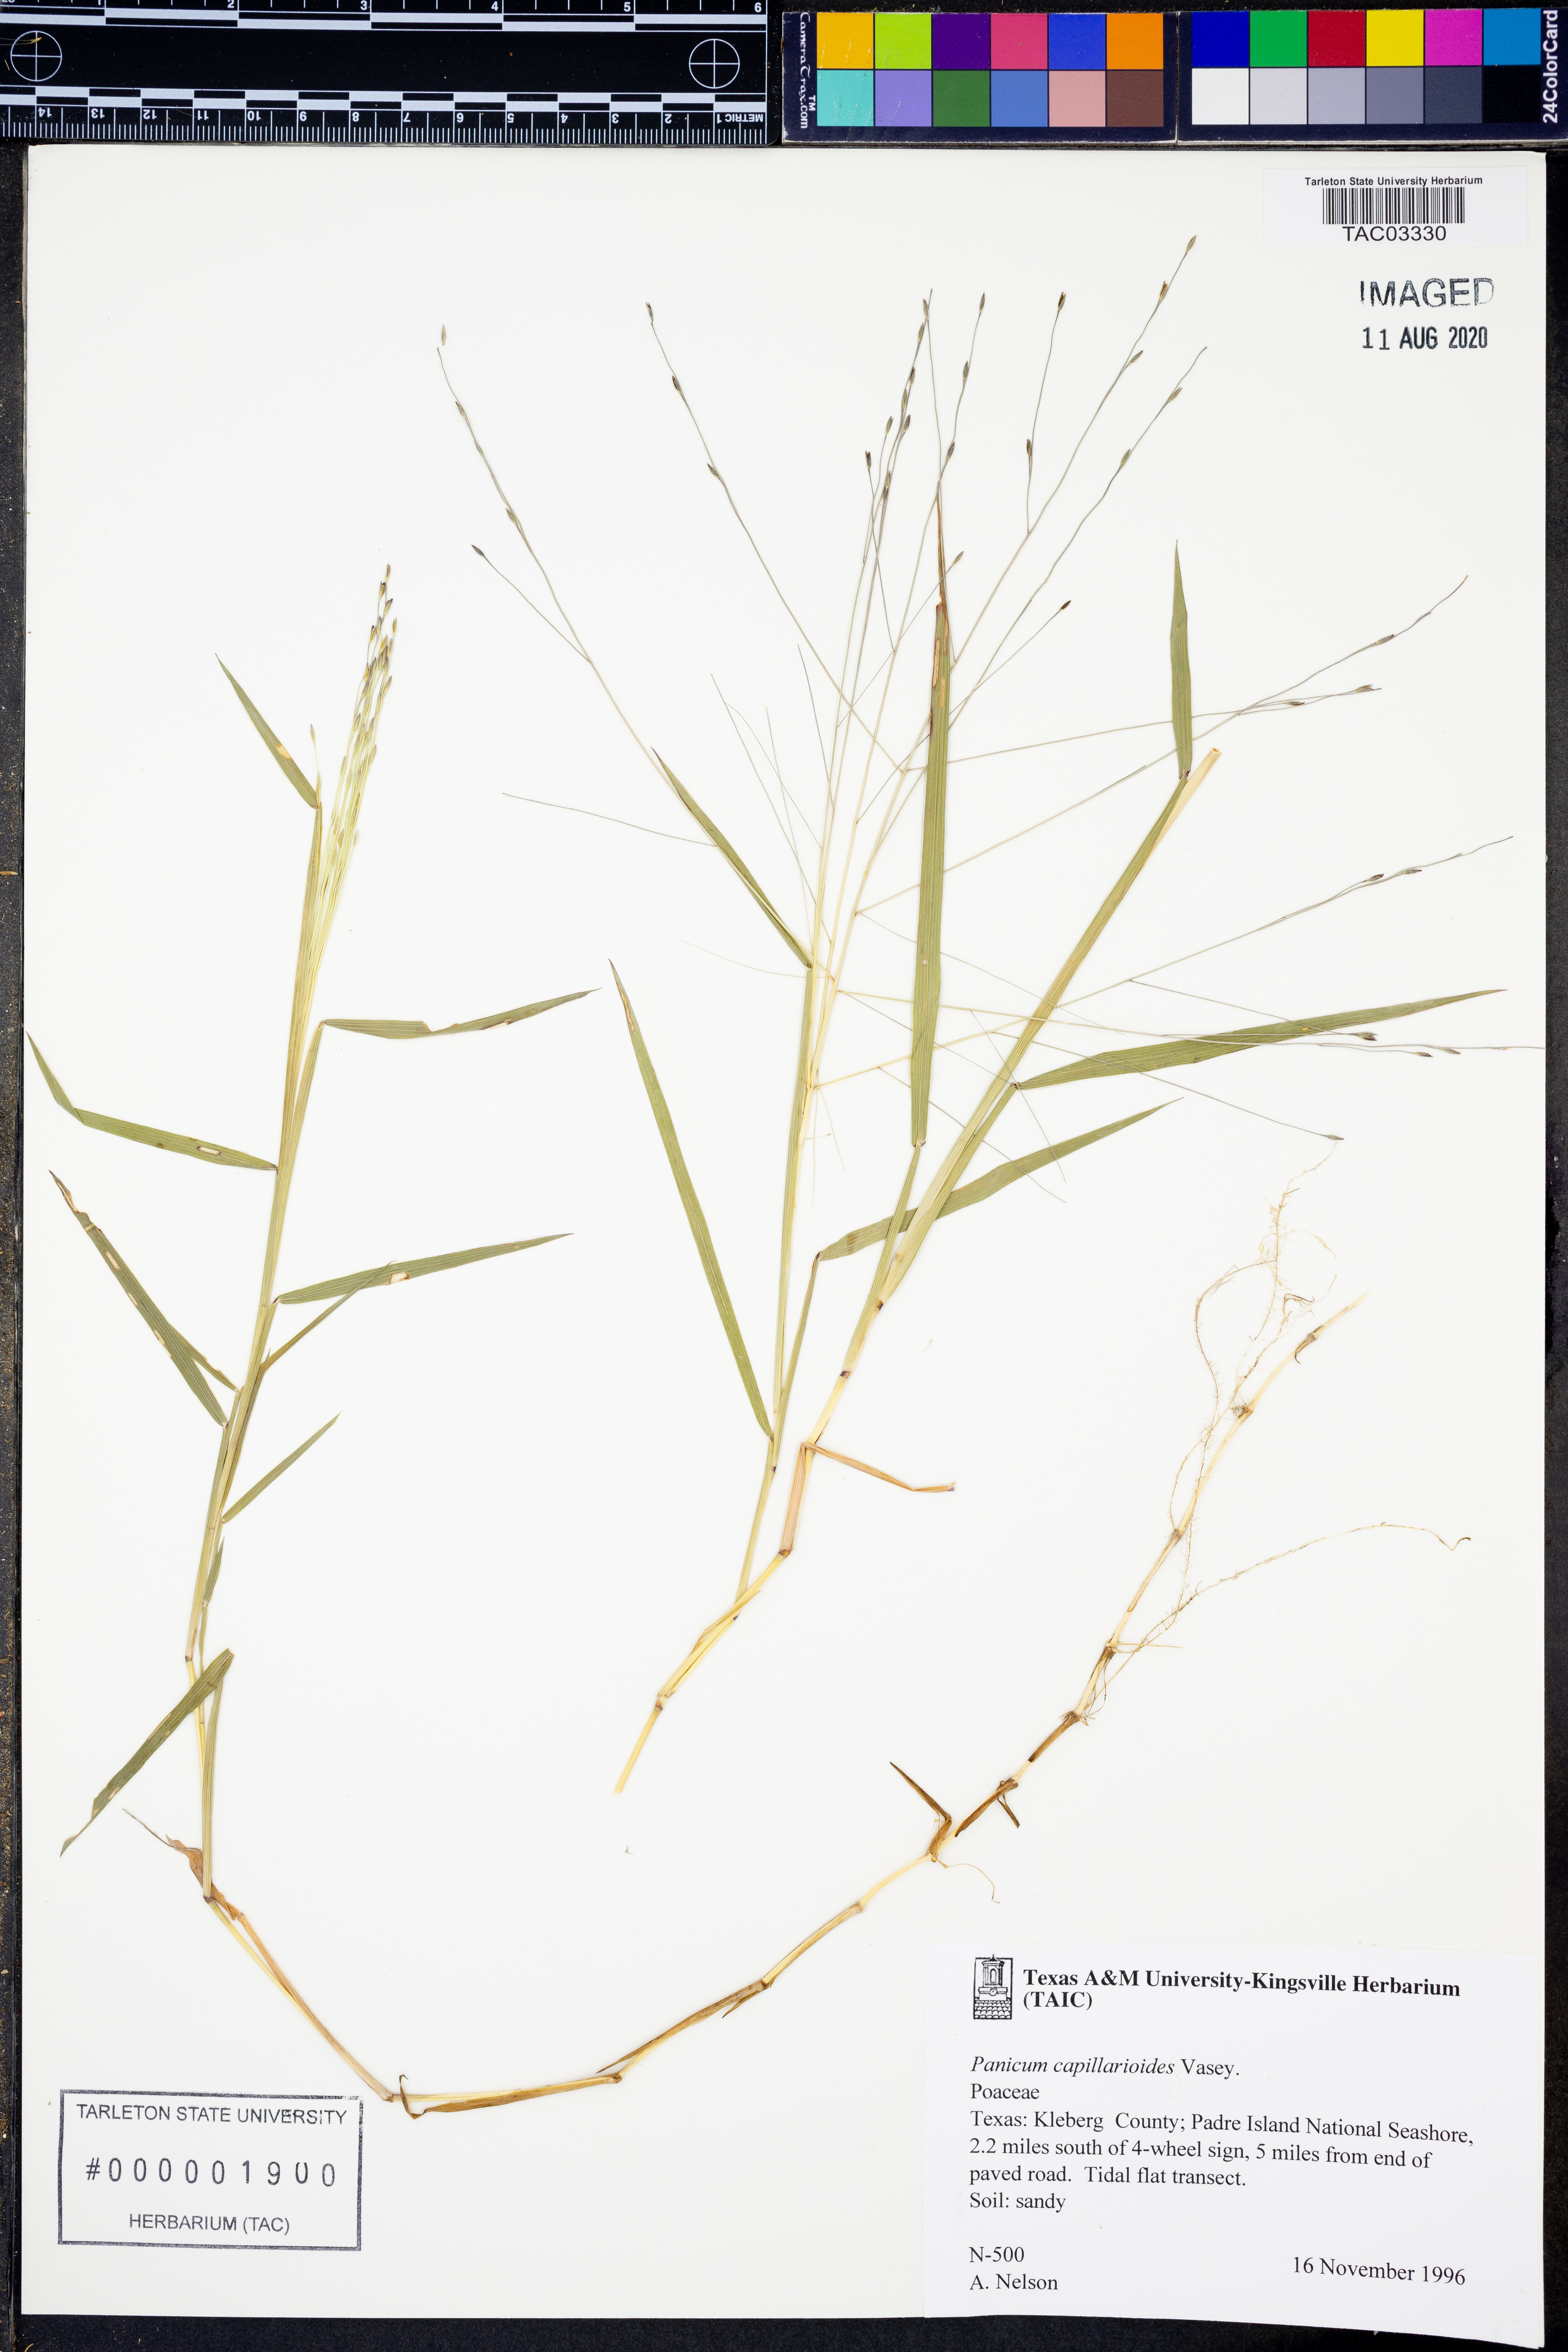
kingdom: Plantae
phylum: Tracheophyta
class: Liliopsida
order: Poales
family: Poaceae
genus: Panicum
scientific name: Panicum capillarioides
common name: Long-beak witchgrass
